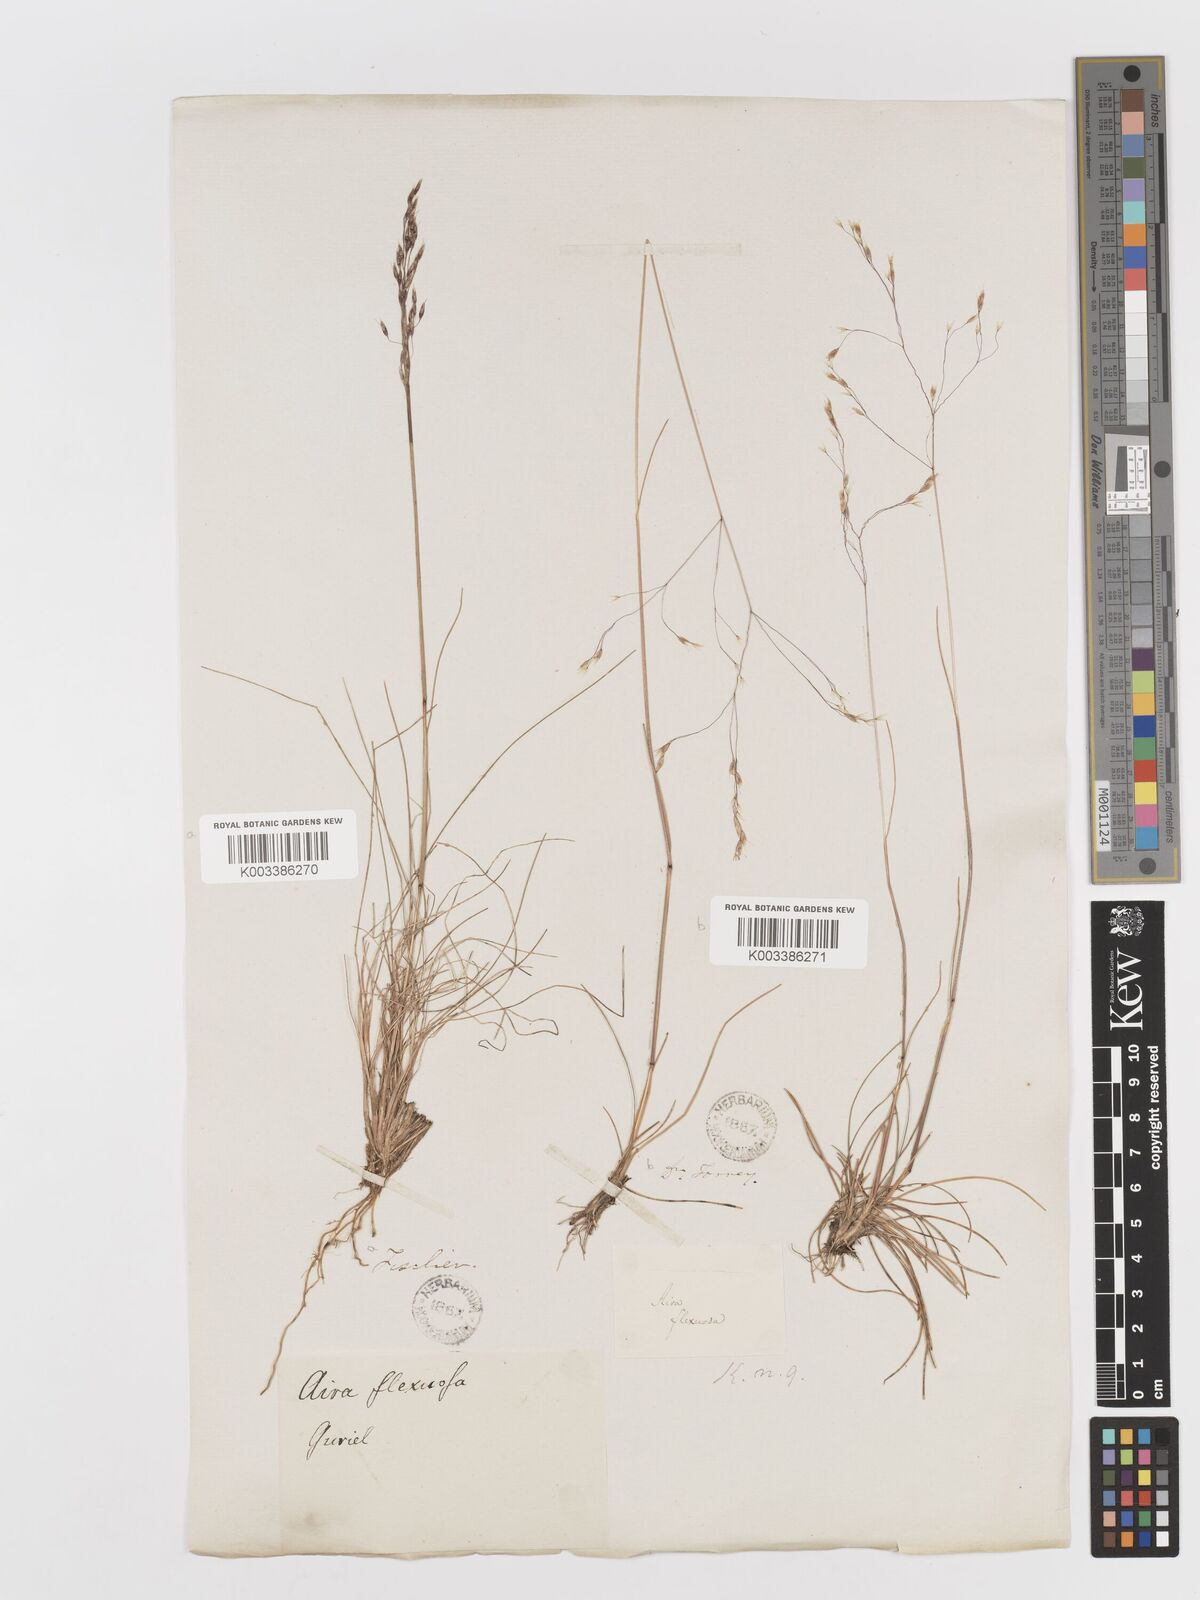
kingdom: Plantae
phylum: Tracheophyta
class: Liliopsida
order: Poales
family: Poaceae
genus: Avenella
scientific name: Avenella flexuosa
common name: Wavy hairgrass
